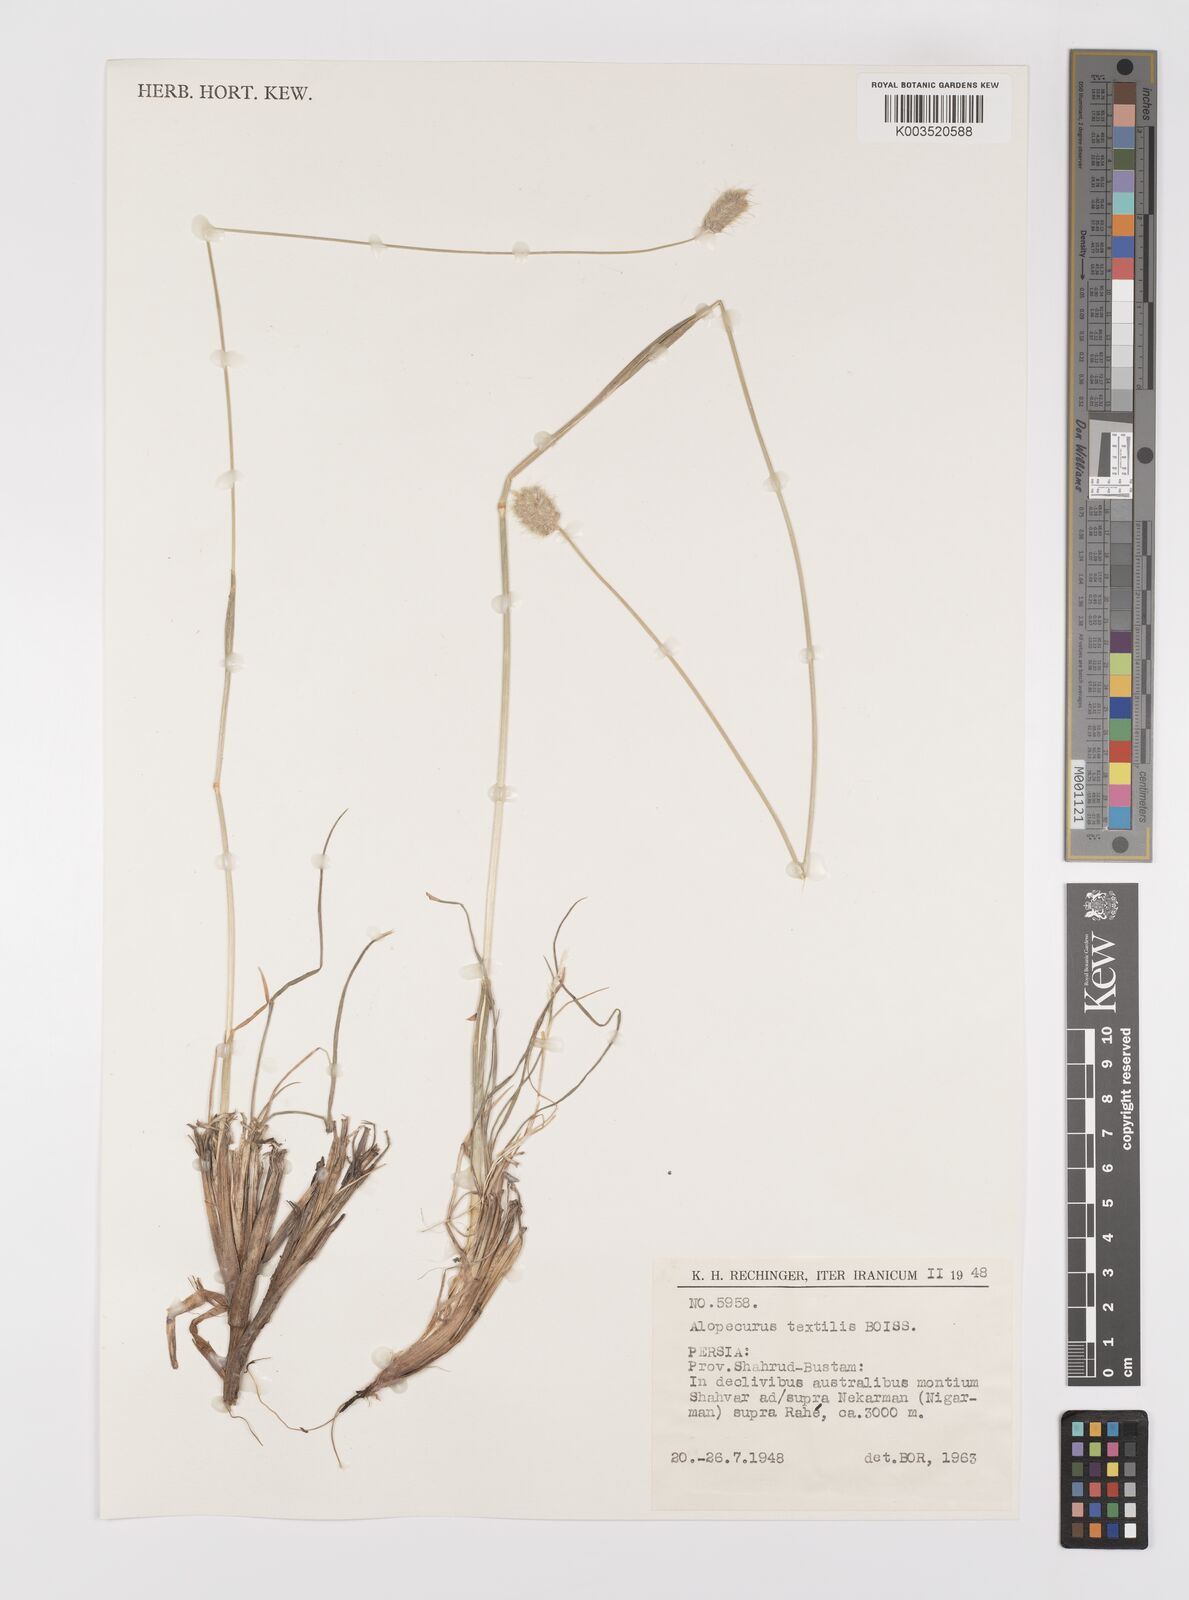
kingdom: Plantae
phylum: Tracheophyta
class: Liliopsida
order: Poales
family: Poaceae
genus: Alopecurus
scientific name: Alopecurus textilis
